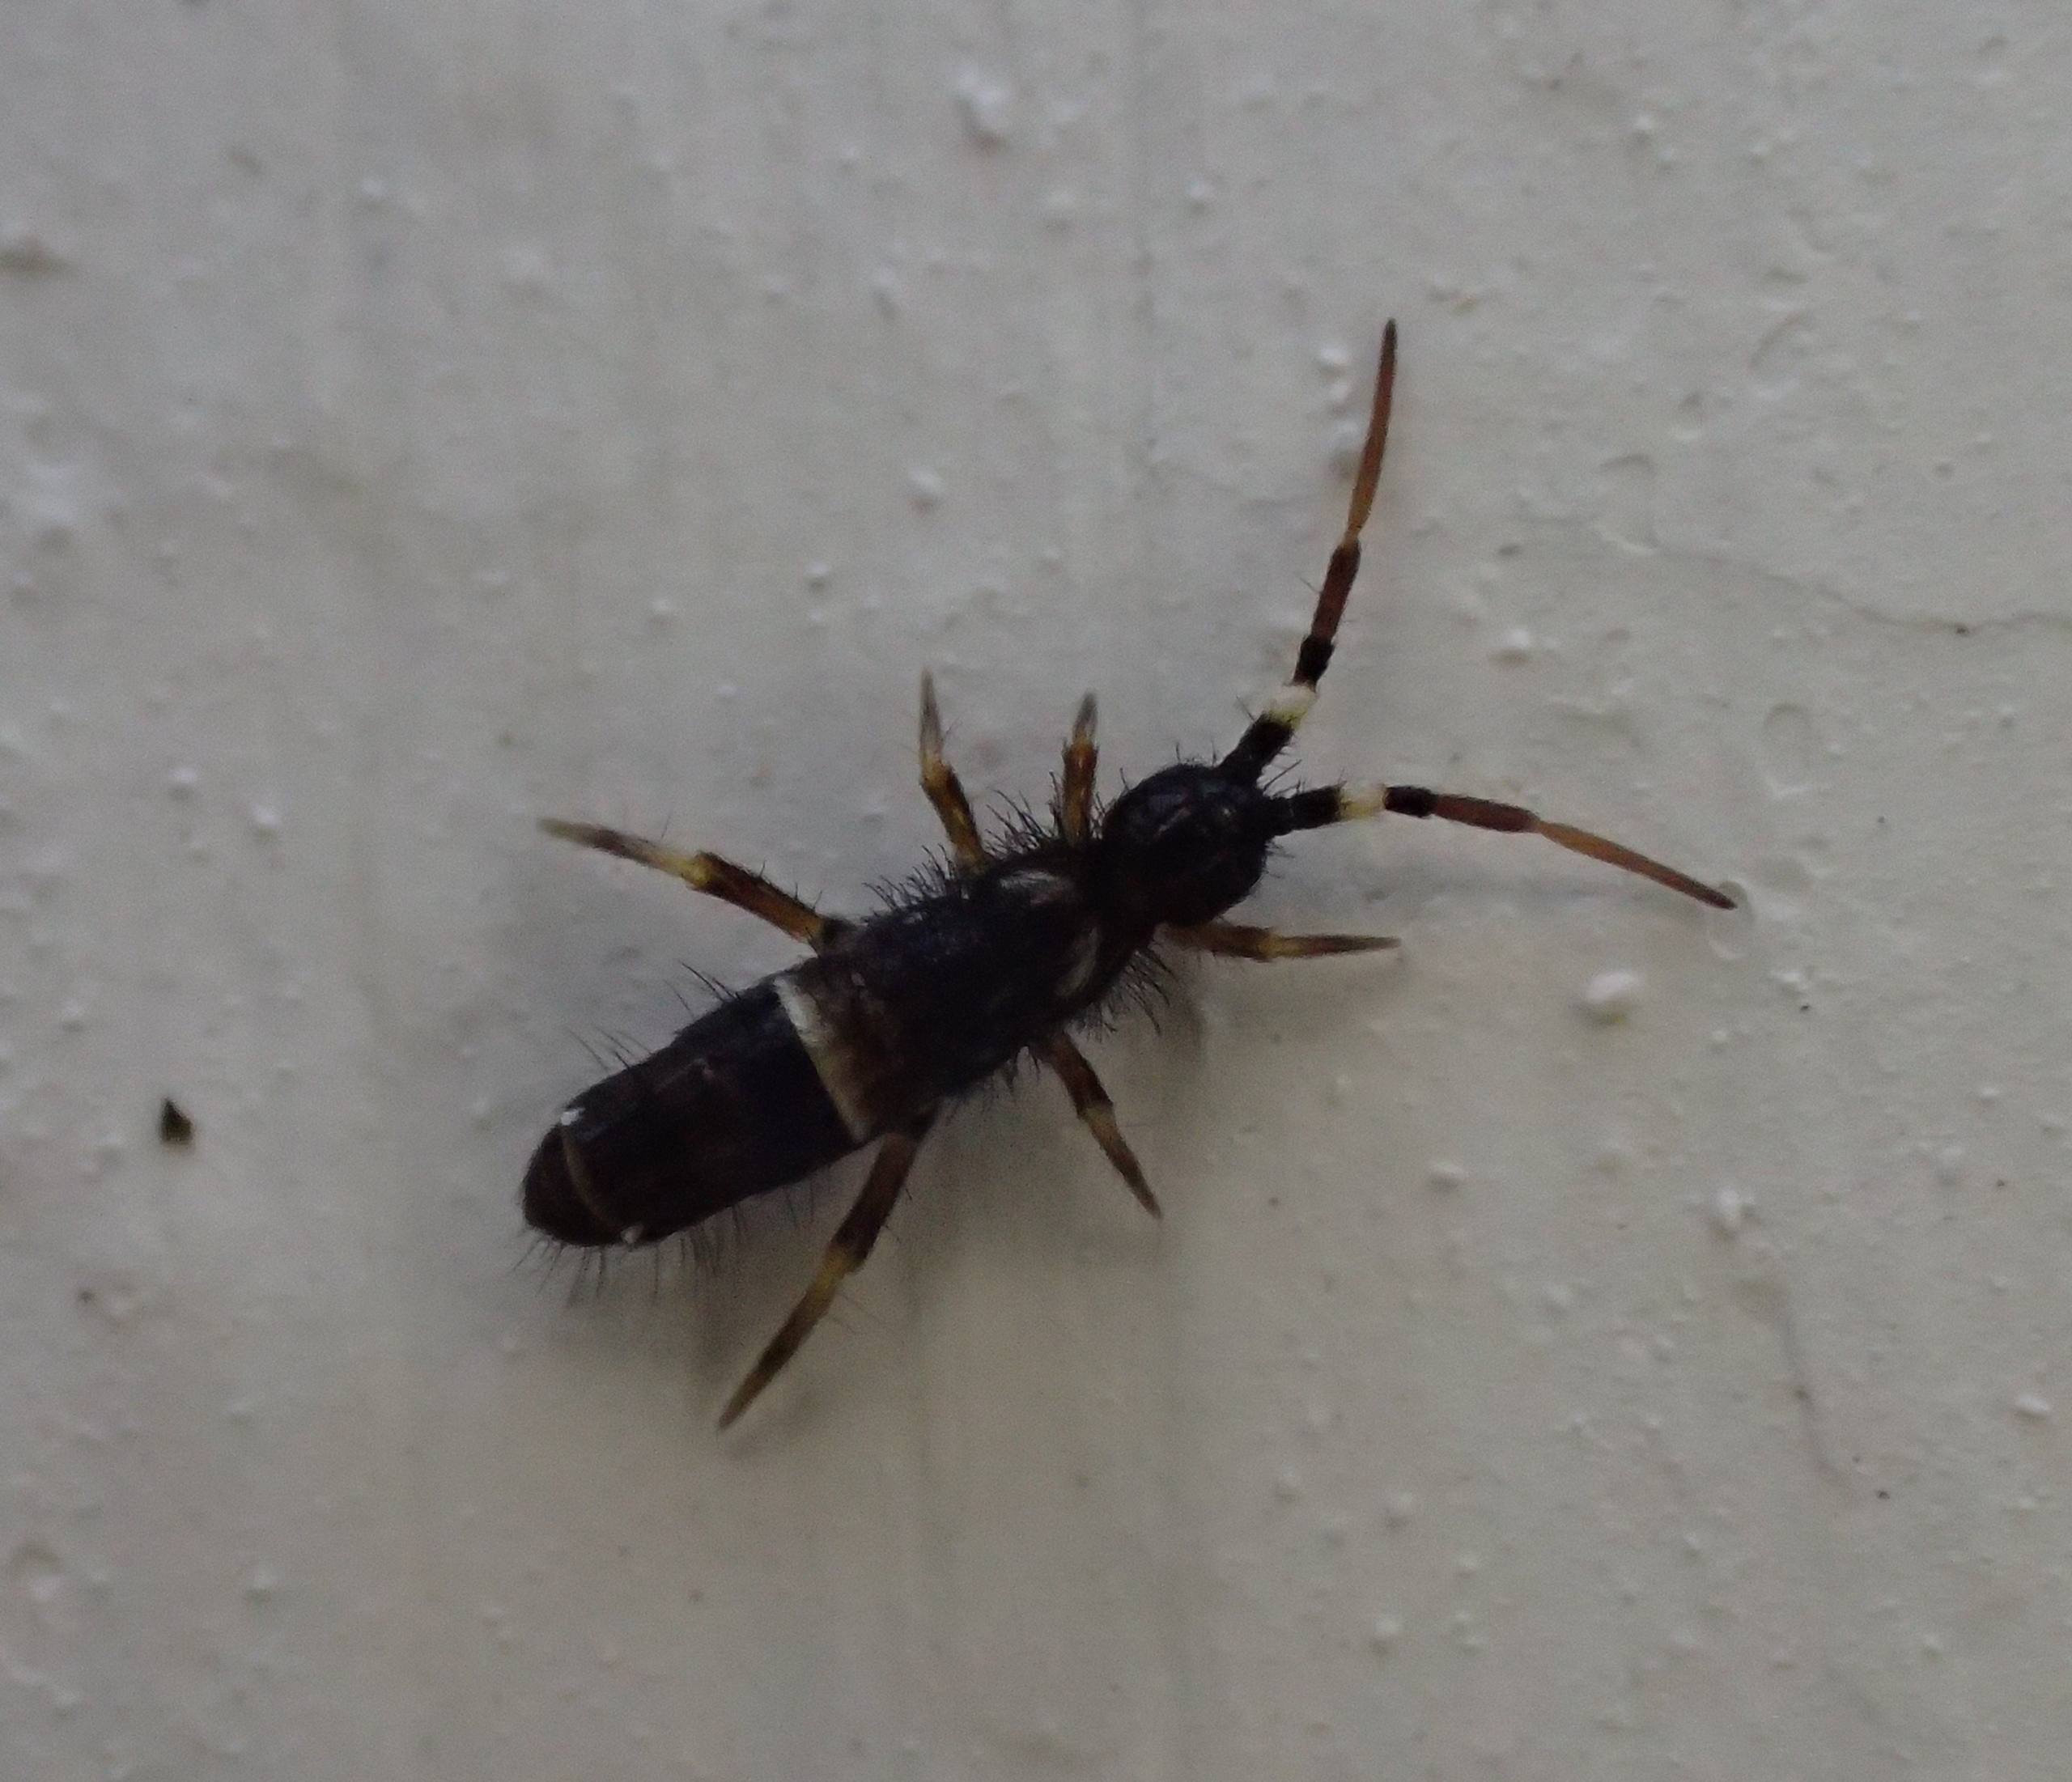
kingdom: Animalia
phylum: Arthropoda
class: Collembola
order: Entomobryomorpha
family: Orchesellidae
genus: Orchesella
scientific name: Orchesella cincta
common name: Bælte-pragtspringhale
